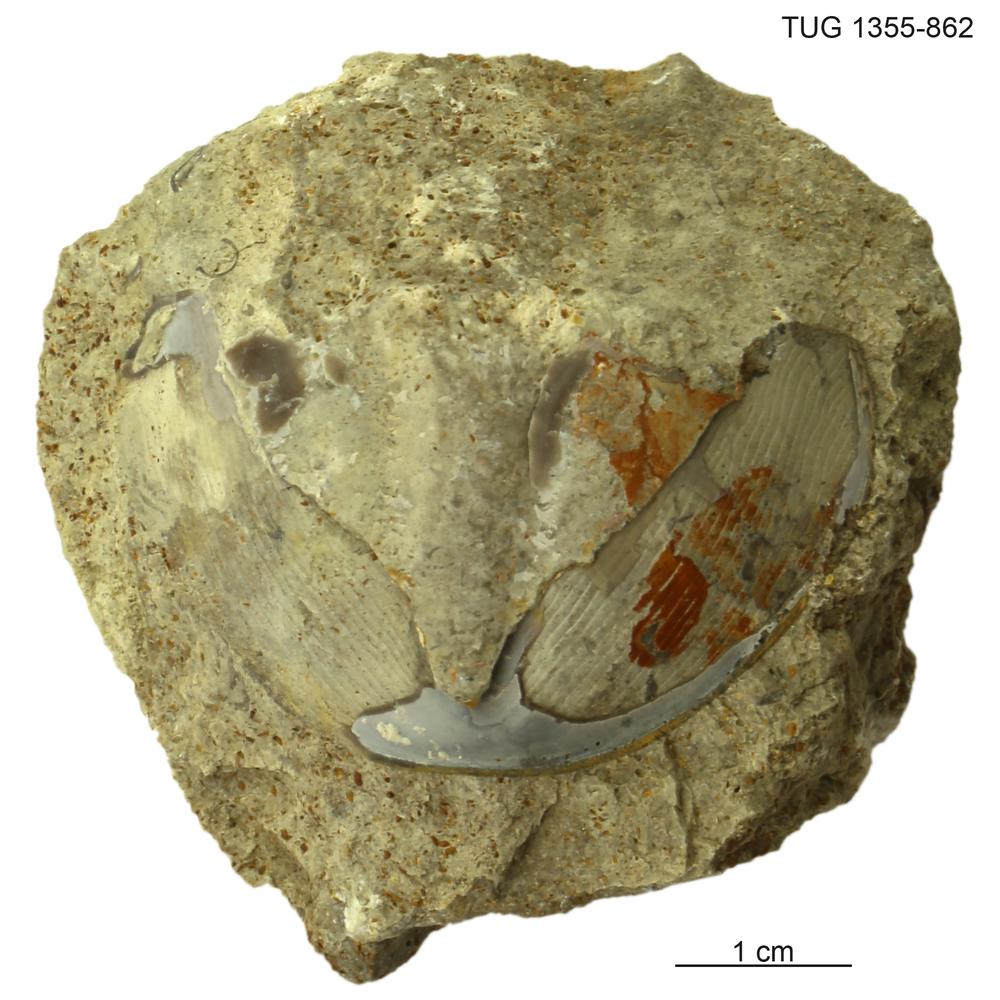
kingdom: Animalia
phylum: Arthropoda
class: Trilobita
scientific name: Trilobita
